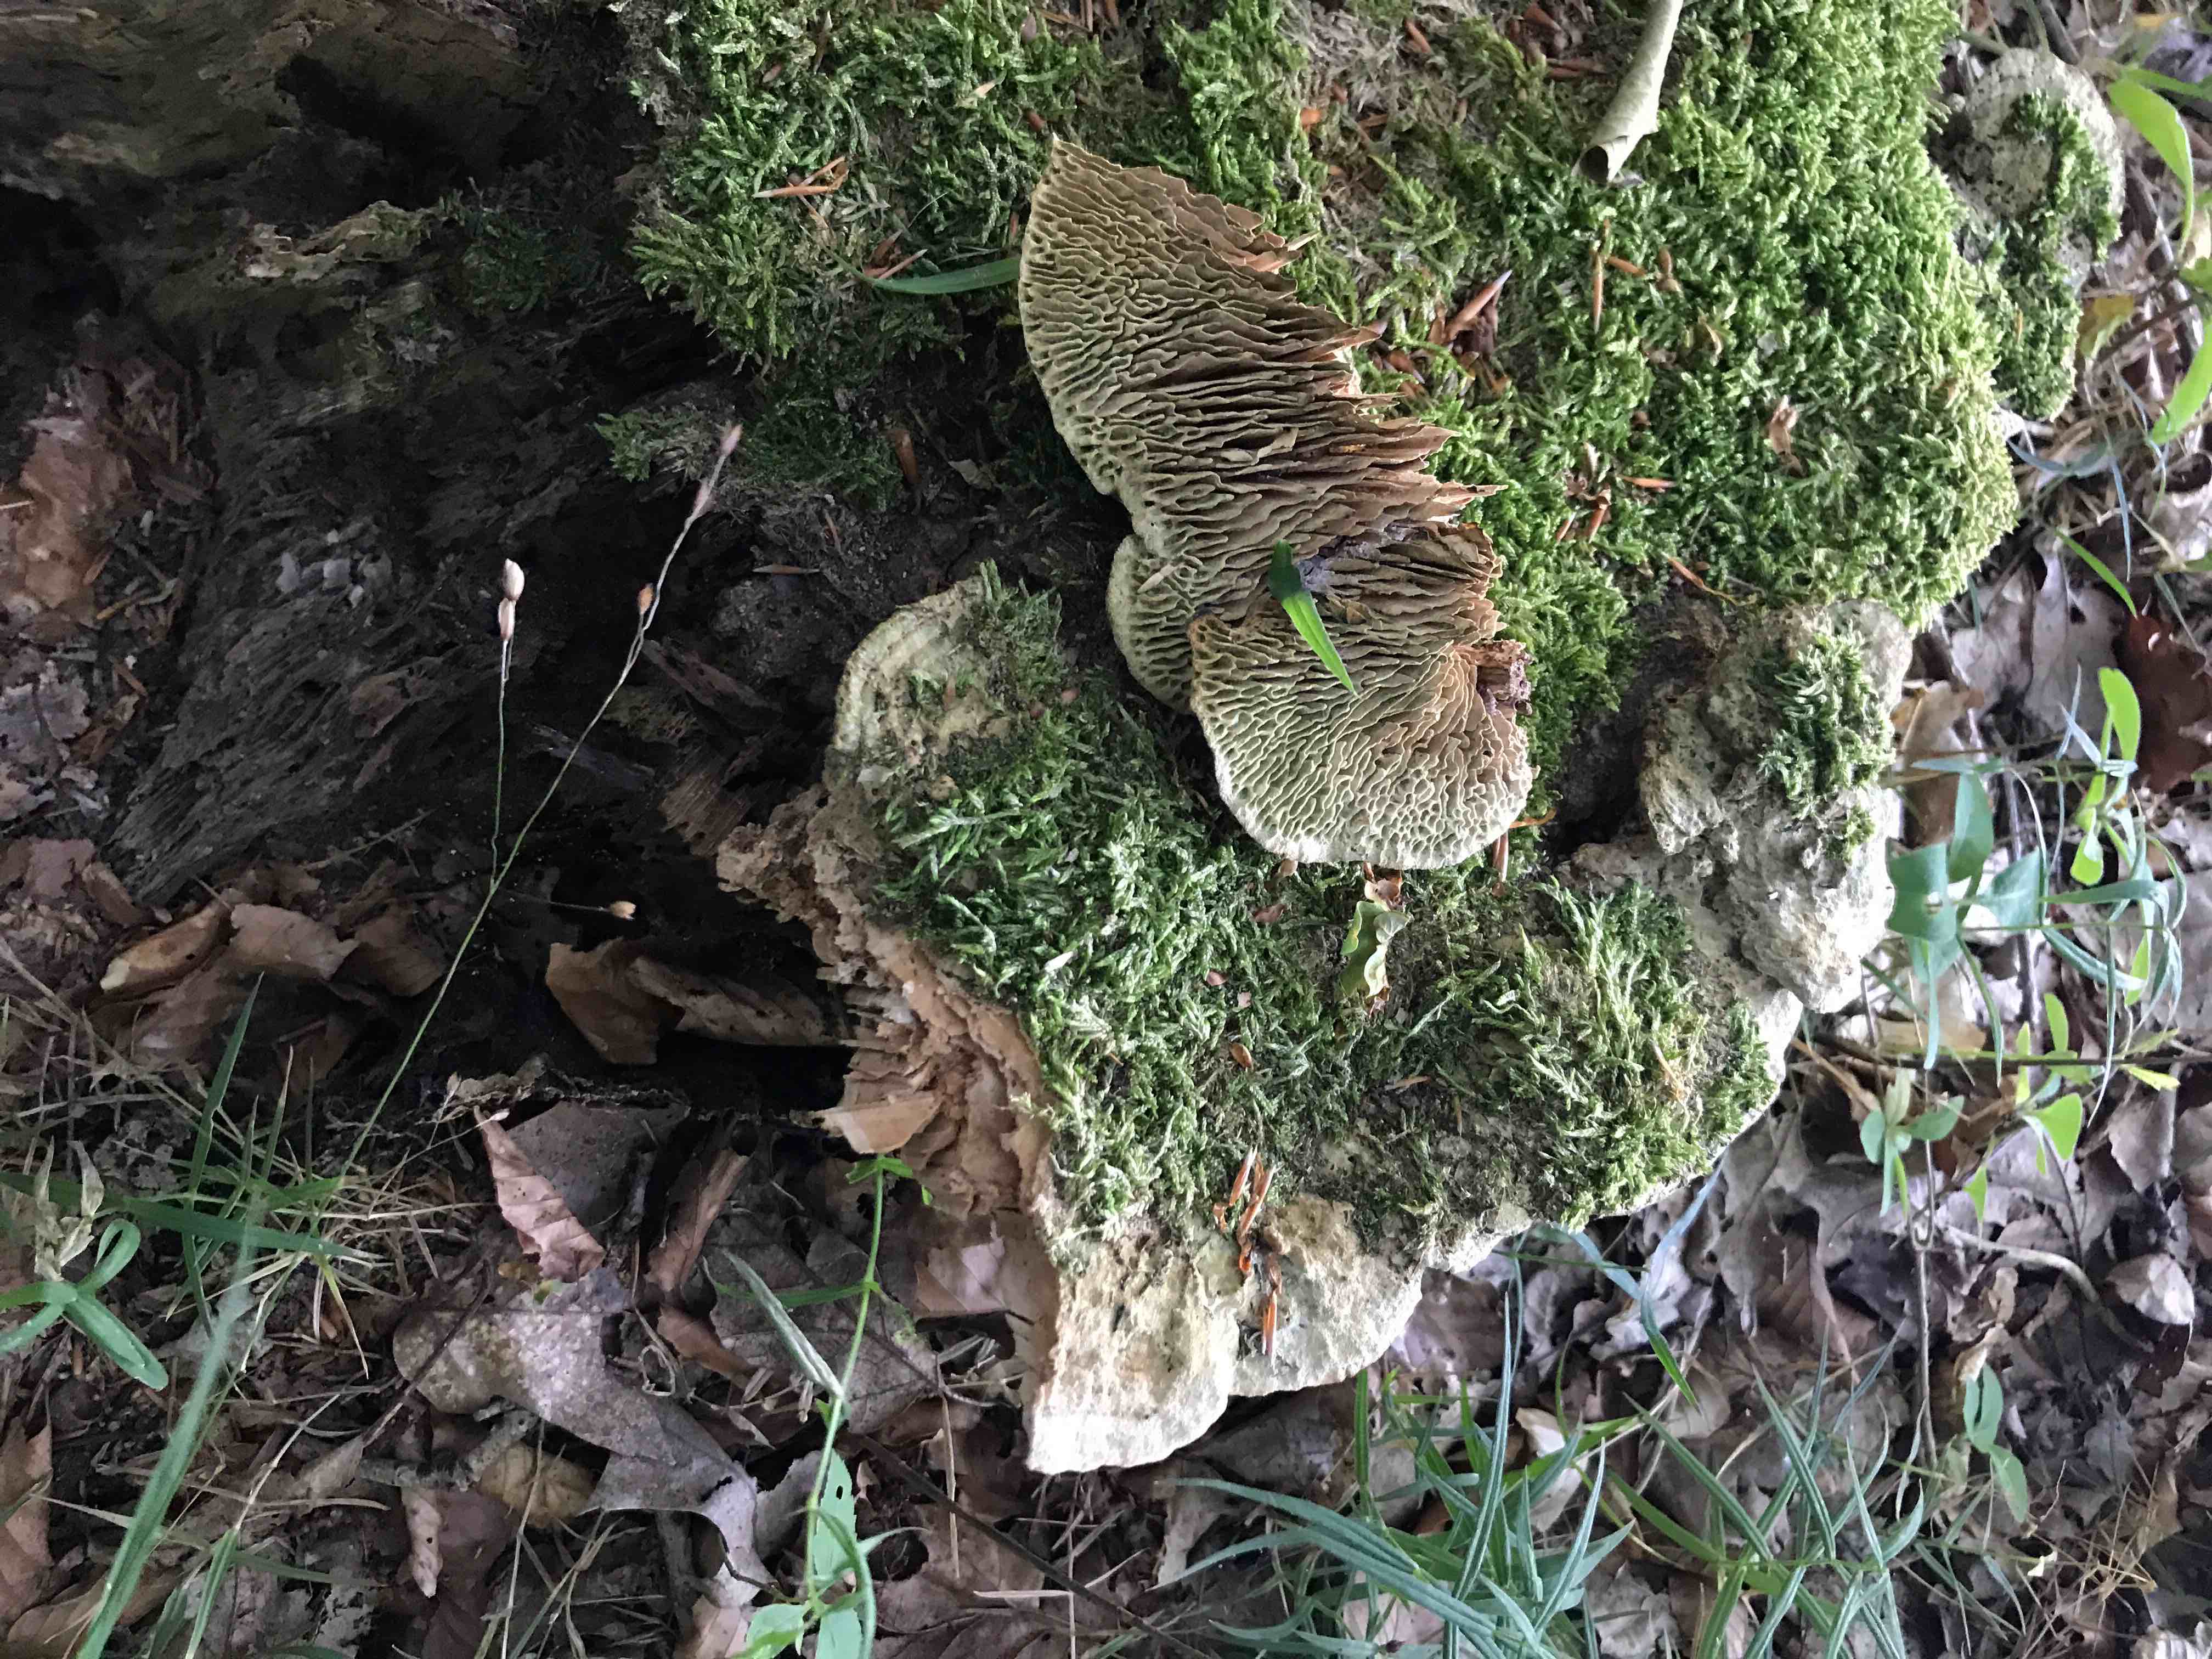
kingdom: Fungi
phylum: Basidiomycota
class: Agaricomycetes
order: Polyporales
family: Fomitopsidaceae
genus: Daedalea
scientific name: Daedalea quercina
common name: ege-labyrintsvamp
